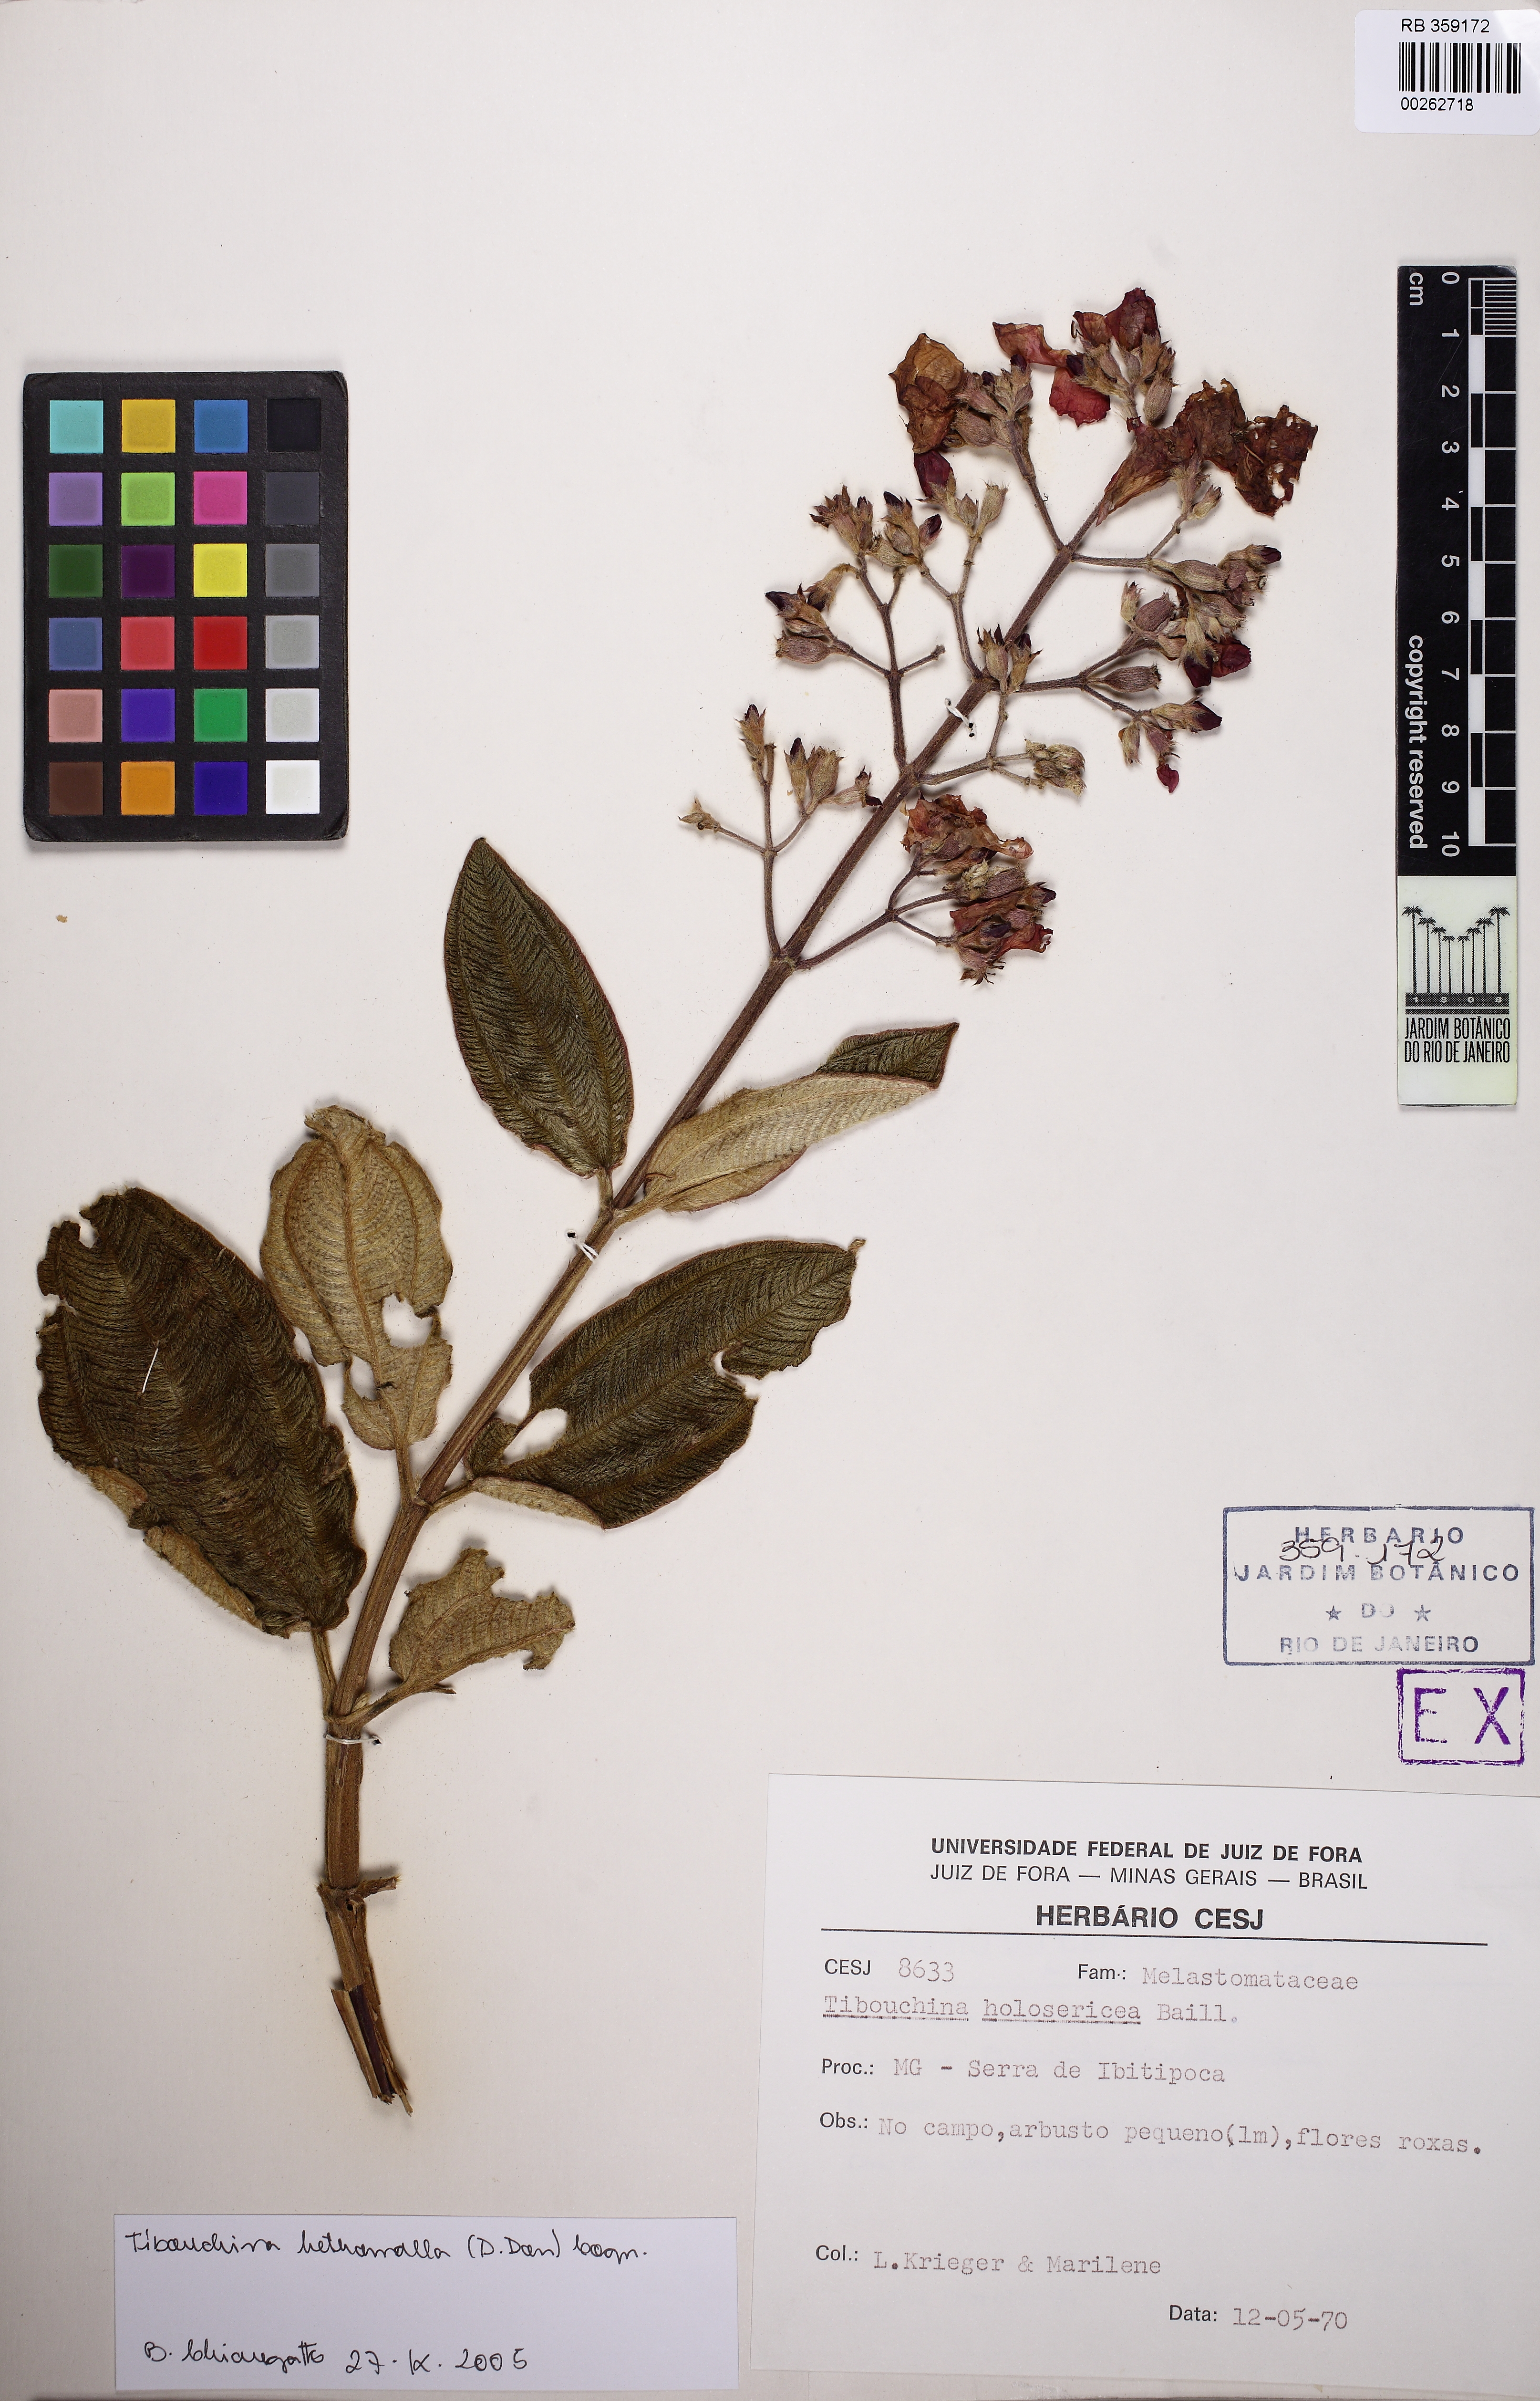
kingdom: Plantae
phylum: Tracheophyta
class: Magnoliopsida
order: Myrtales
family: Melastomataceae
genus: Pleroma
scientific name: Pleroma heteromallum
